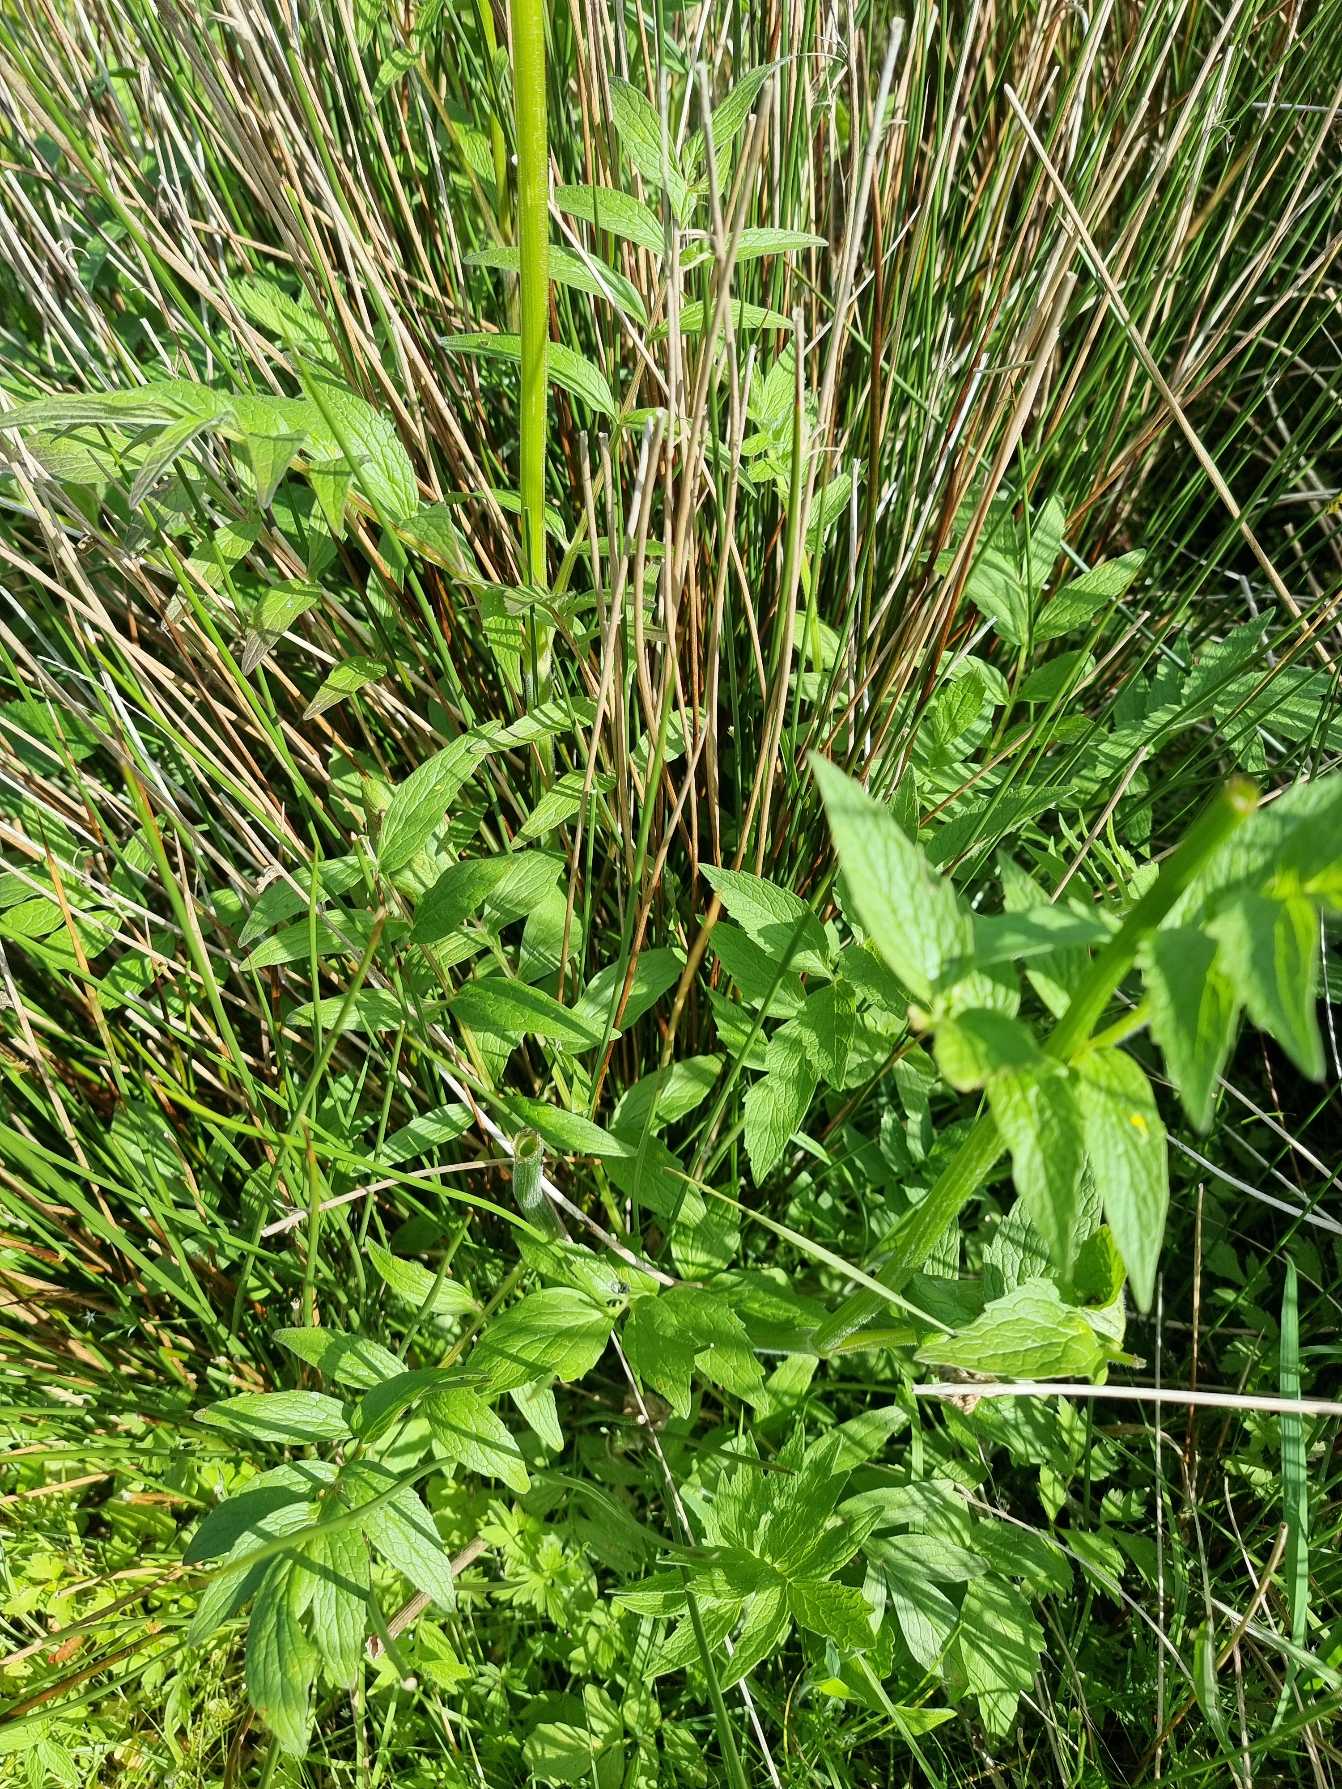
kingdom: Plantae
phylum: Tracheophyta
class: Magnoliopsida
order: Dipsacales
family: Caprifoliaceae
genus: Valeriana
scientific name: Valeriana sambucifolia
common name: Hyldebladet baldrian
